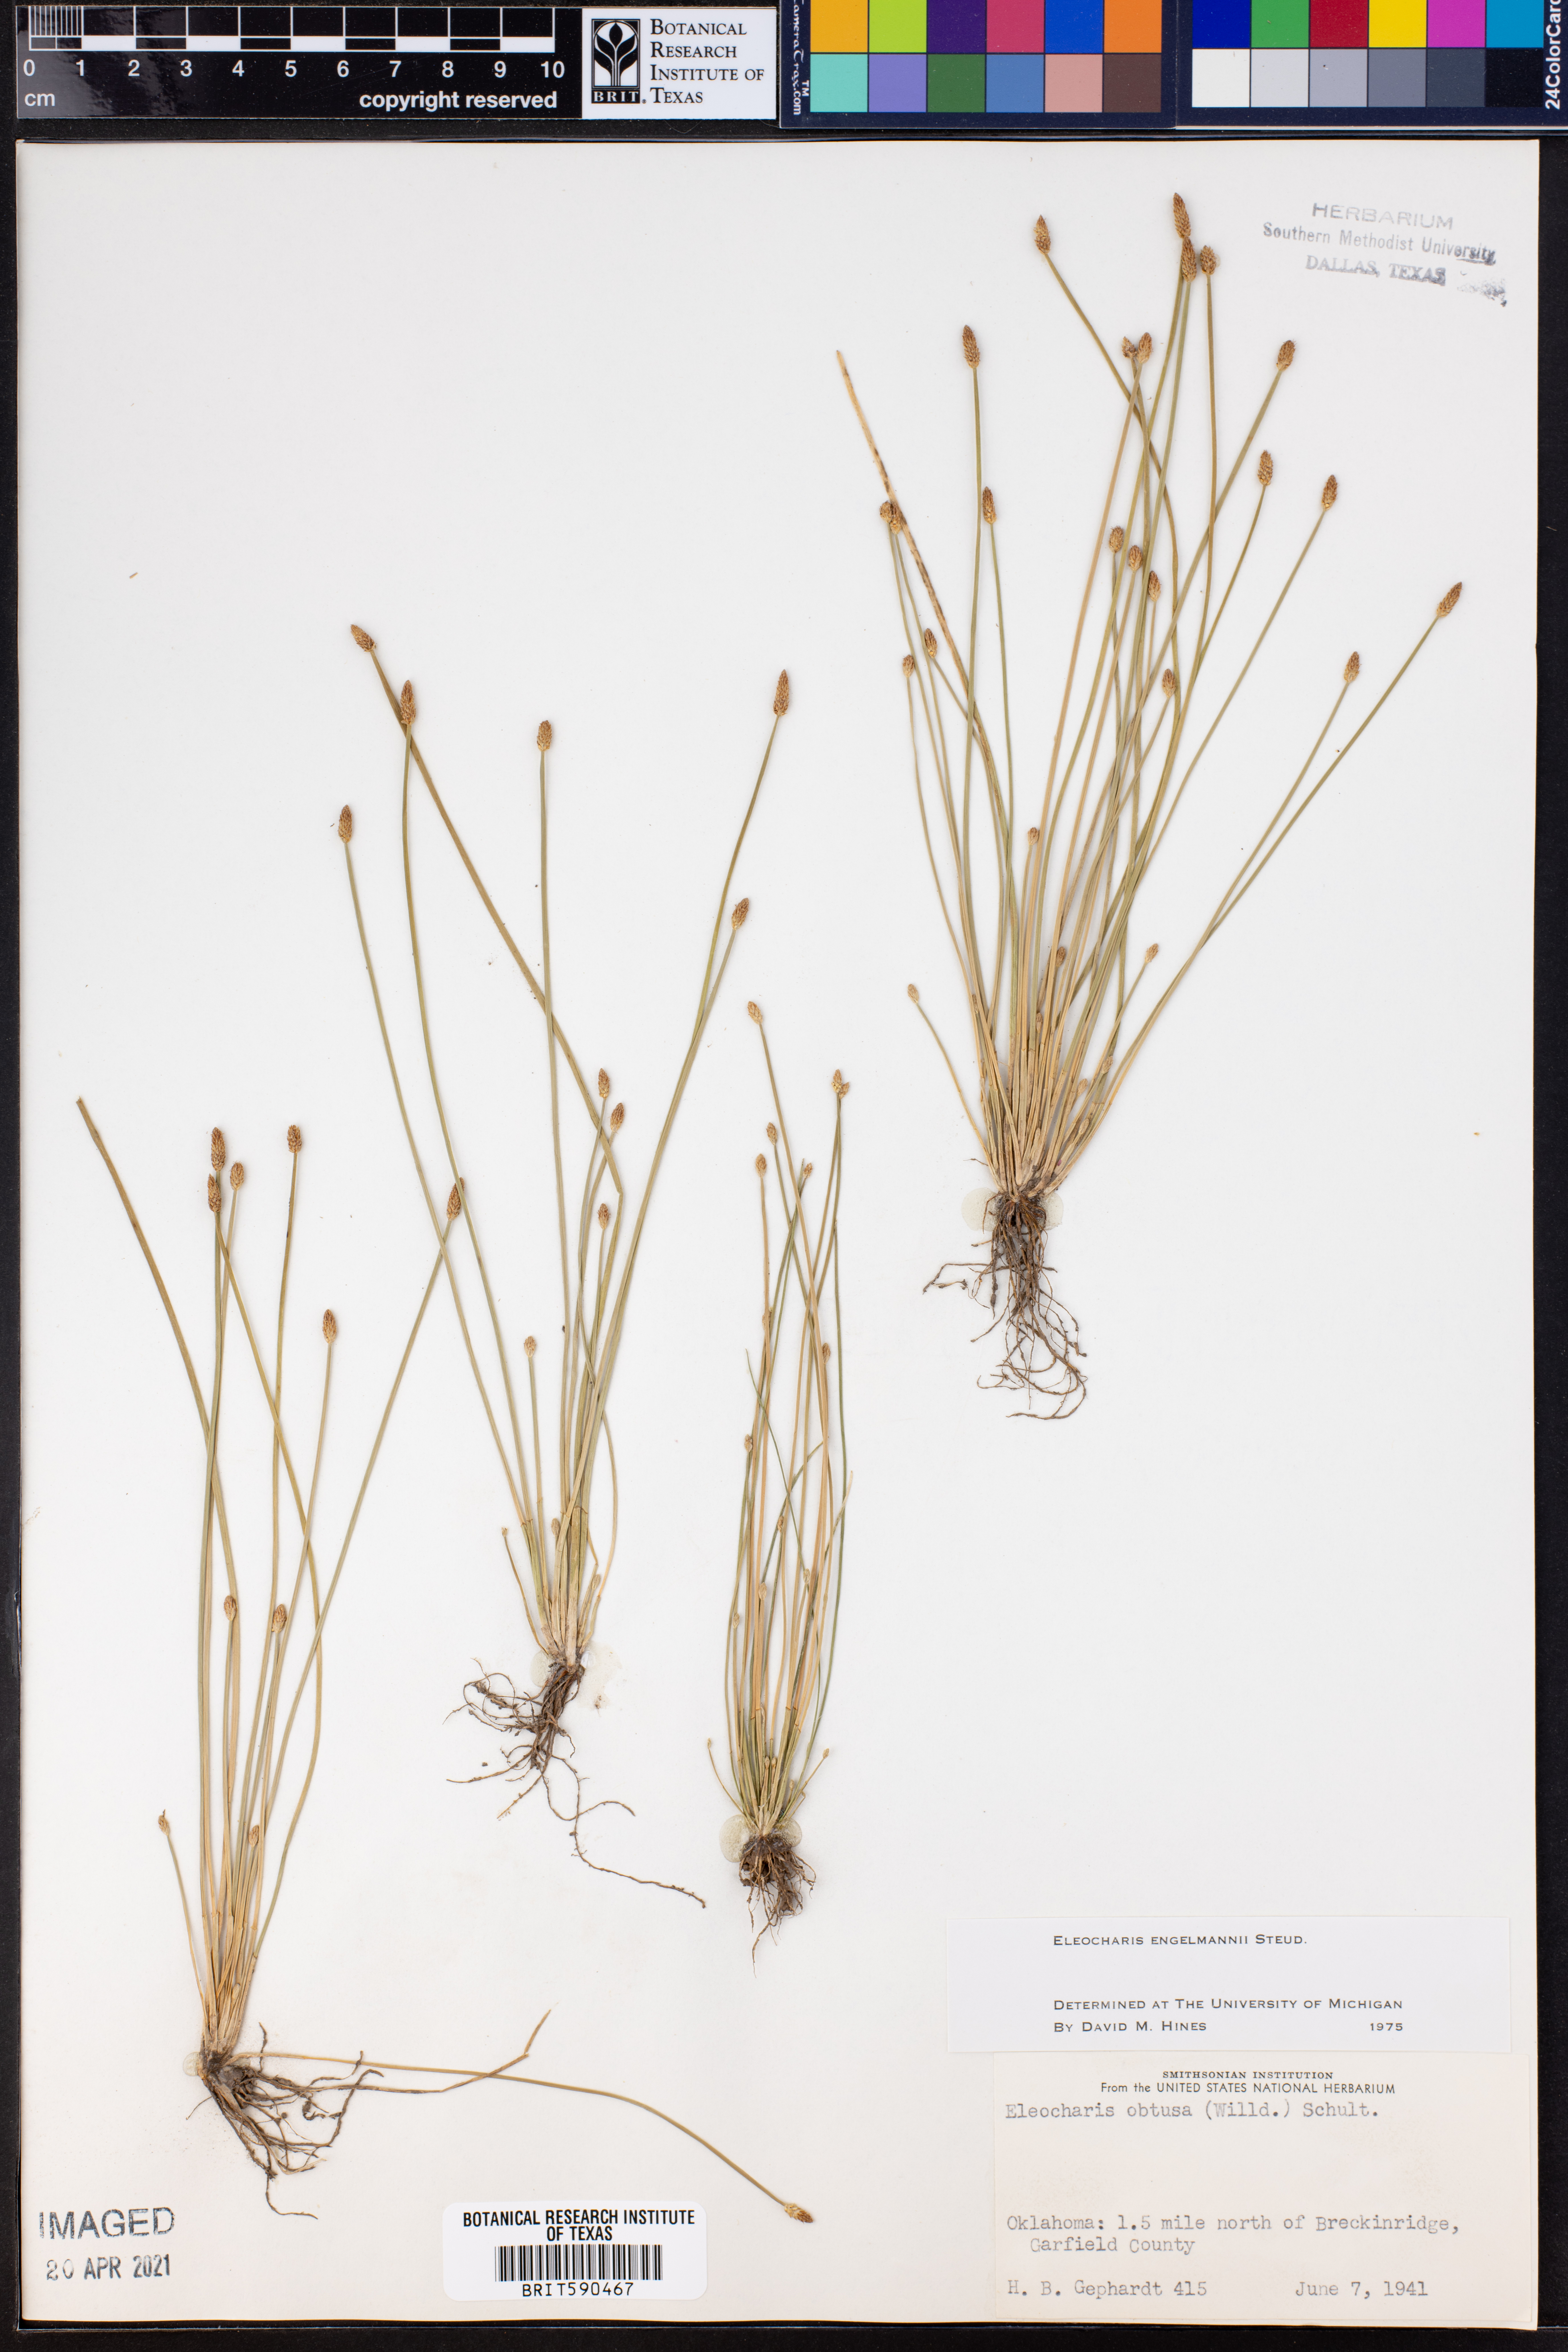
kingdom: Plantae
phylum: Tracheophyta
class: Liliopsida
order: Poales
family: Cyperaceae
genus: Eleocharis
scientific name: Eleocharis engelmannii
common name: Engelmann's spikerush
